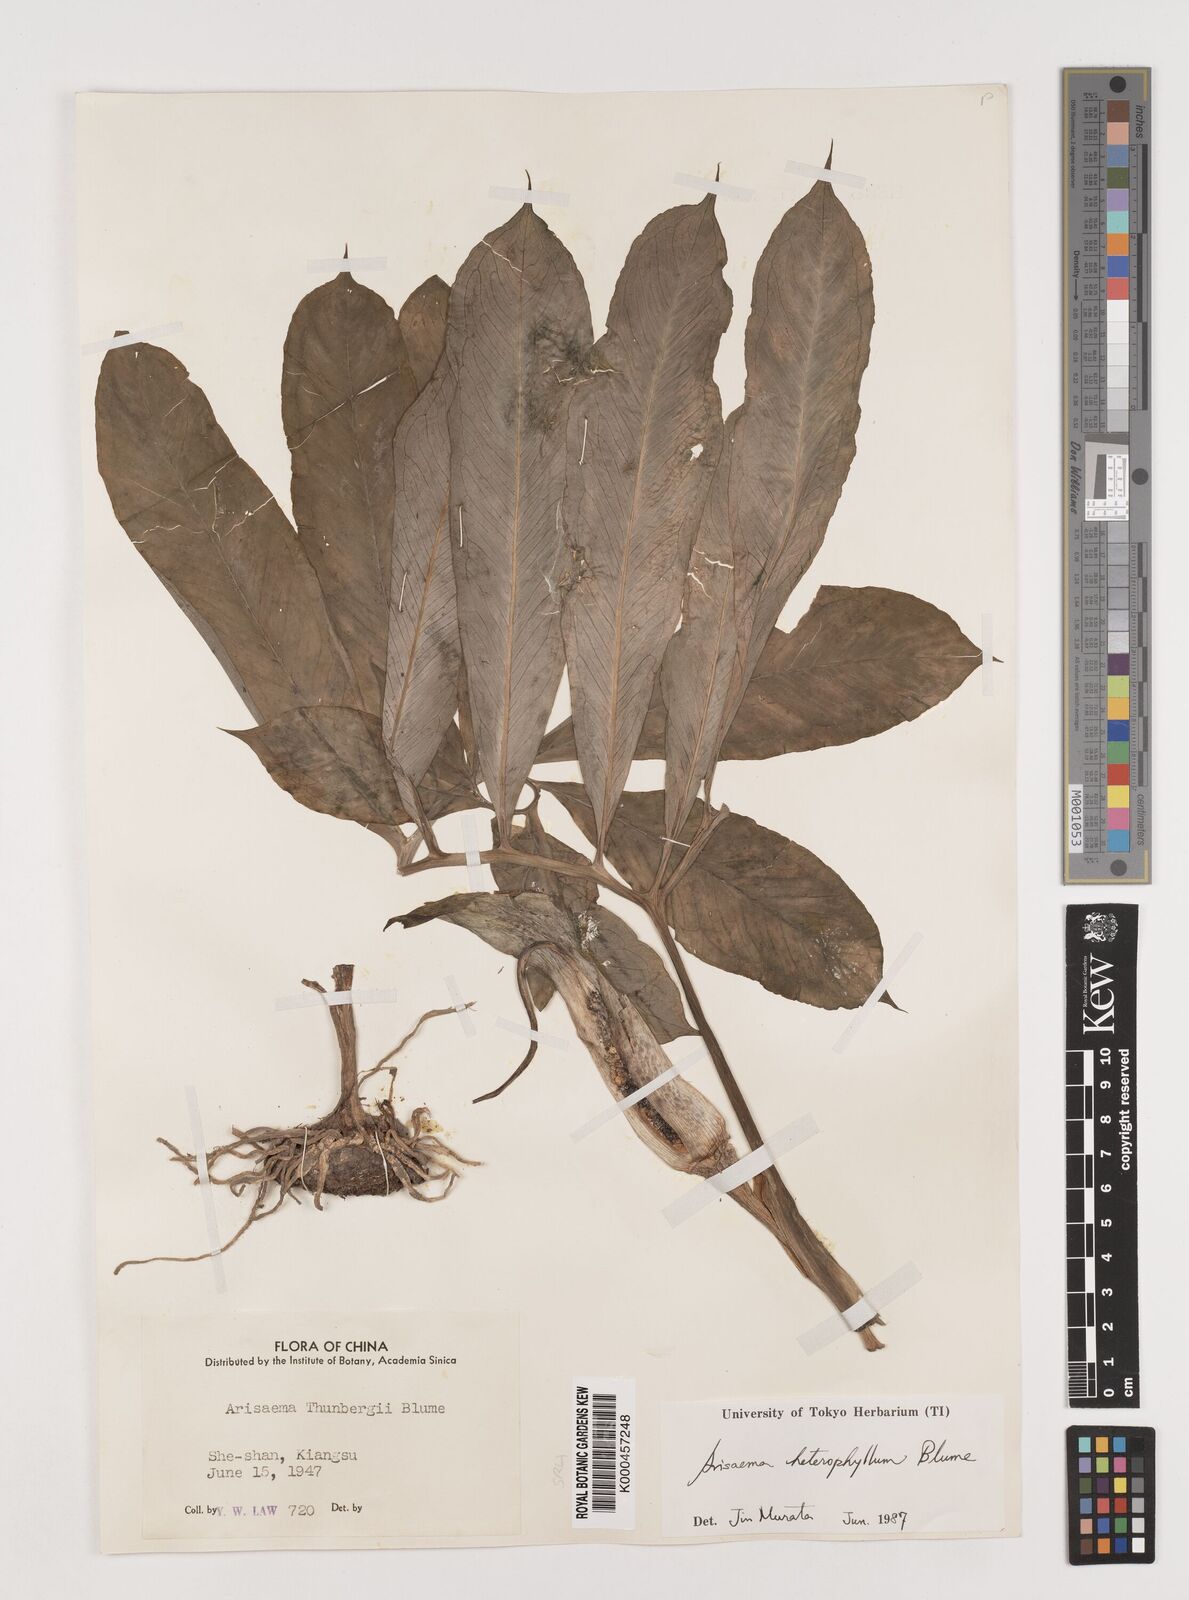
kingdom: Plantae
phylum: Tracheophyta
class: Liliopsida
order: Alismatales
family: Araceae
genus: Arisaema
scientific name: Arisaema heterophyllum
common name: Dancing crane cobra lily
